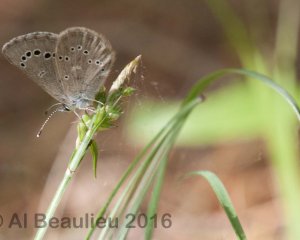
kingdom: Animalia
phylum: Arthropoda
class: Insecta
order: Lepidoptera
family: Lycaenidae
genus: Glaucopsyche
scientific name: Glaucopsyche lygdamus
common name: Silvery Blue
